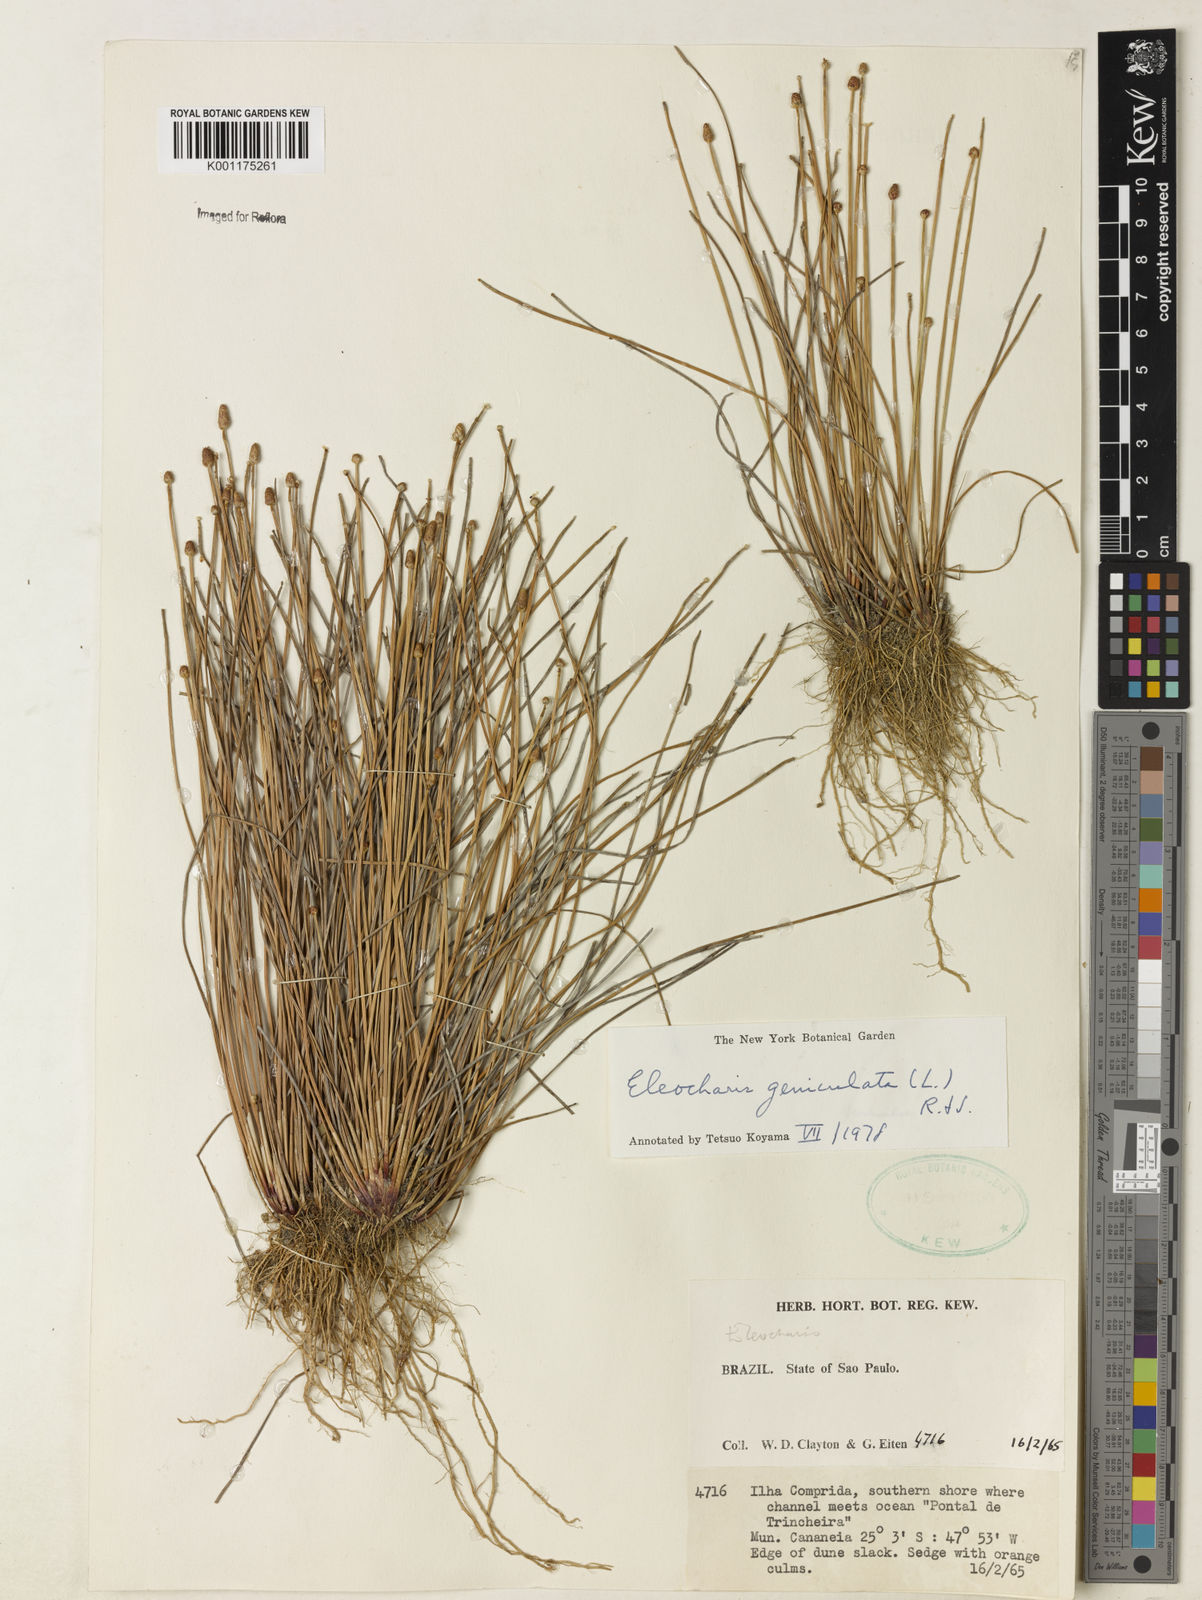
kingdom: Plantae
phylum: Tracheophyta
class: Liliopsida
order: Poales
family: Cyperaceae
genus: Eleocharis
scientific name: Eleocharis geniculata
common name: Canada spikesedge
